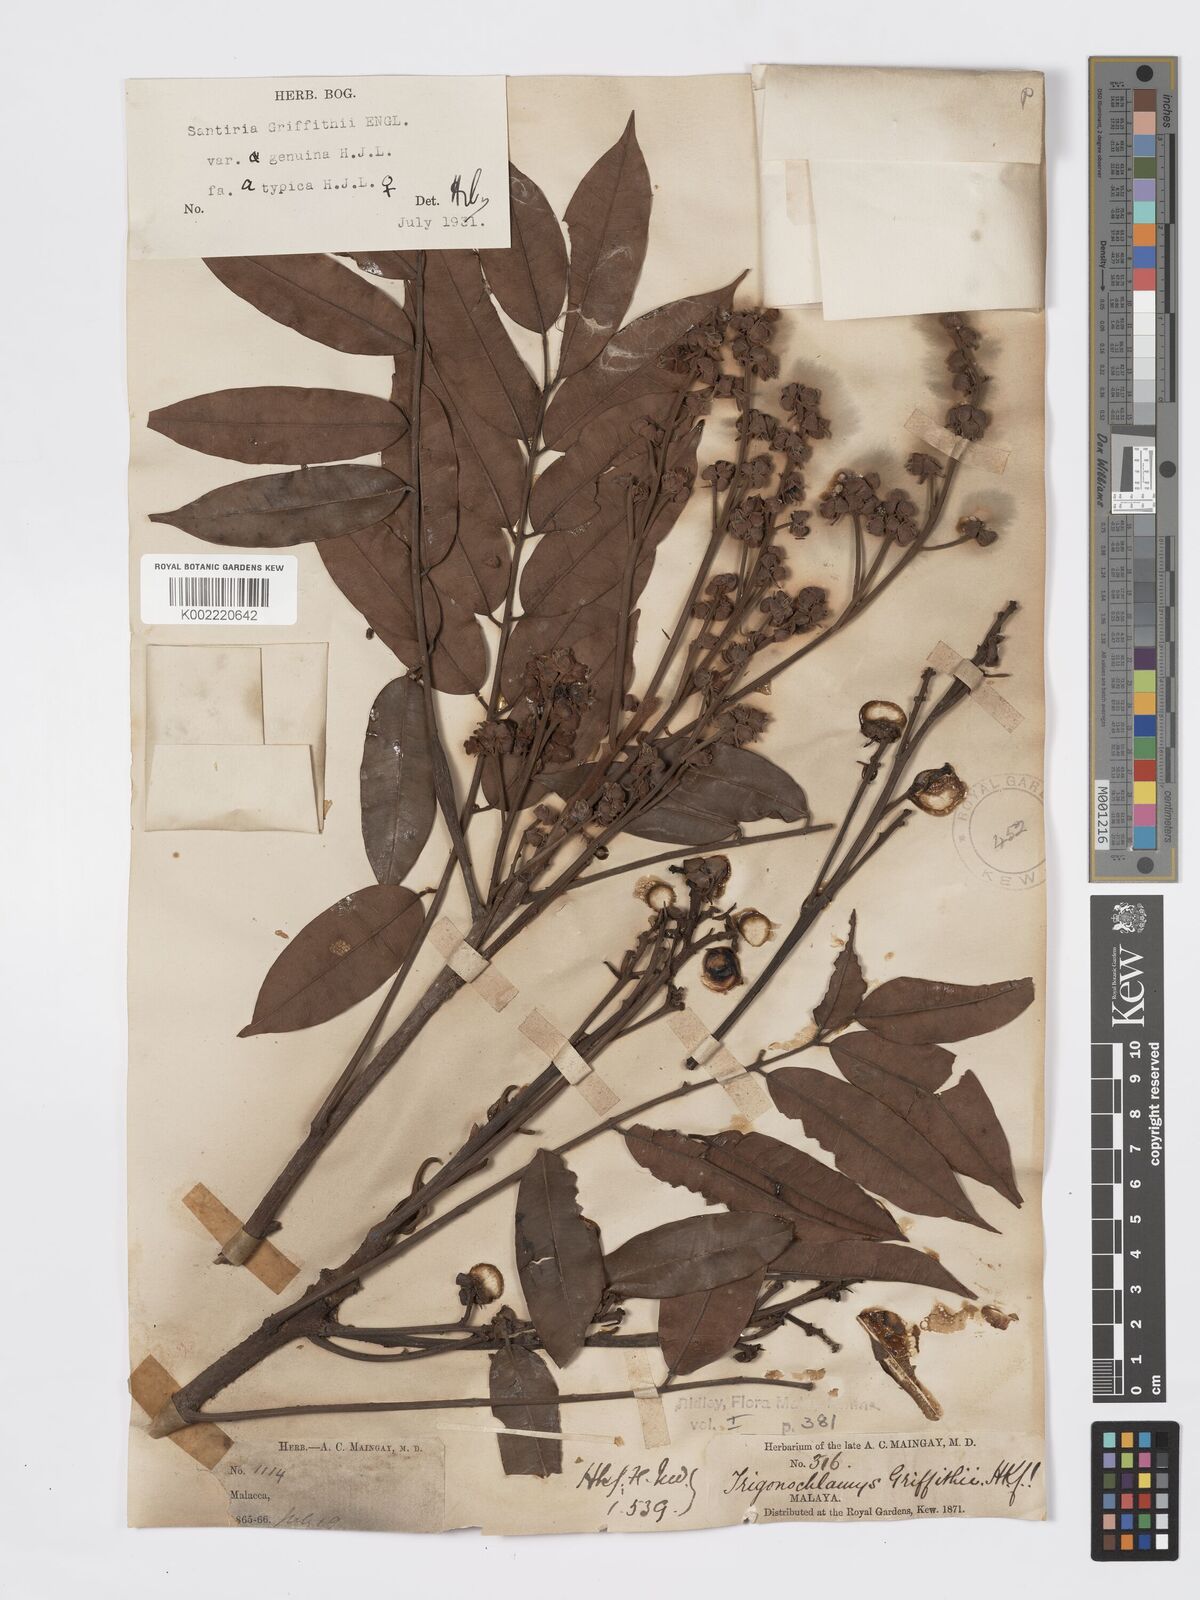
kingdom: Plantae
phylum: Tracheophyta
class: Magnoliopsida
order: Sapindales
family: Burseraceae
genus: Santiria
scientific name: Santiria griffithii
